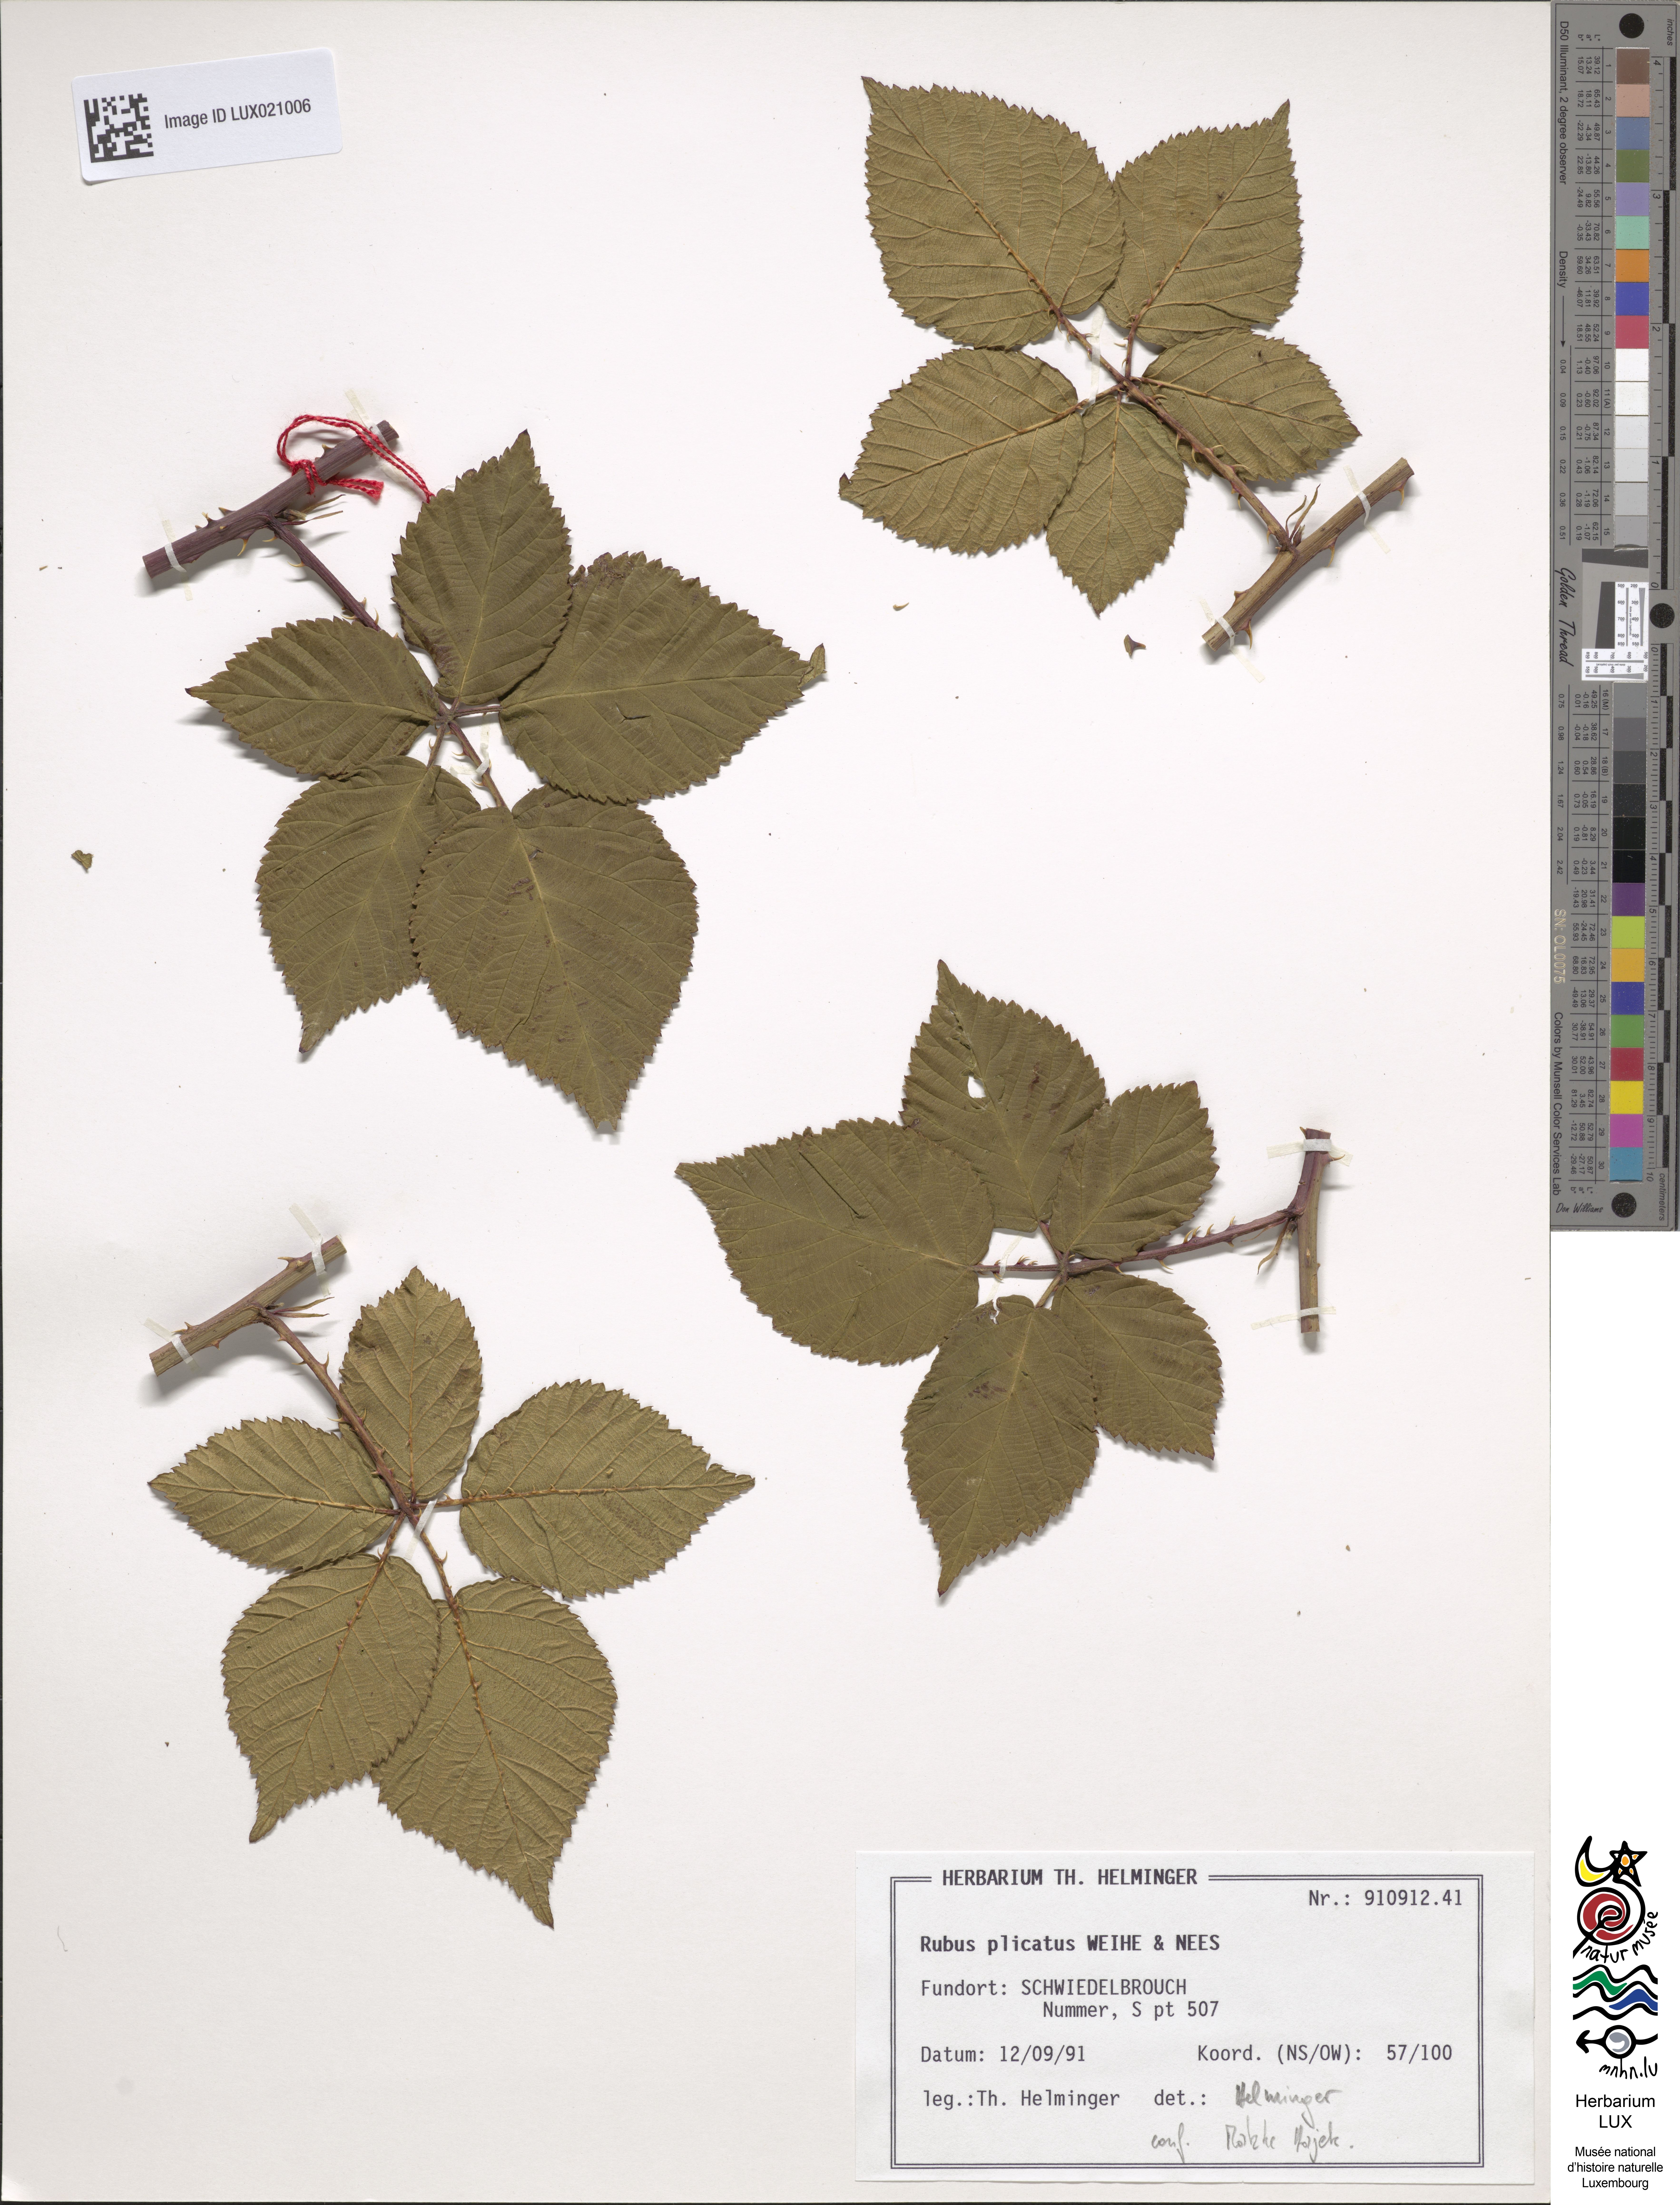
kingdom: Plantae
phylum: Tracheophyta
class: Magnoliopsida
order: Rosales
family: Rosaceae
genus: Rubus
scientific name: Rubus plicatus
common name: Plaited-leaved bramble
